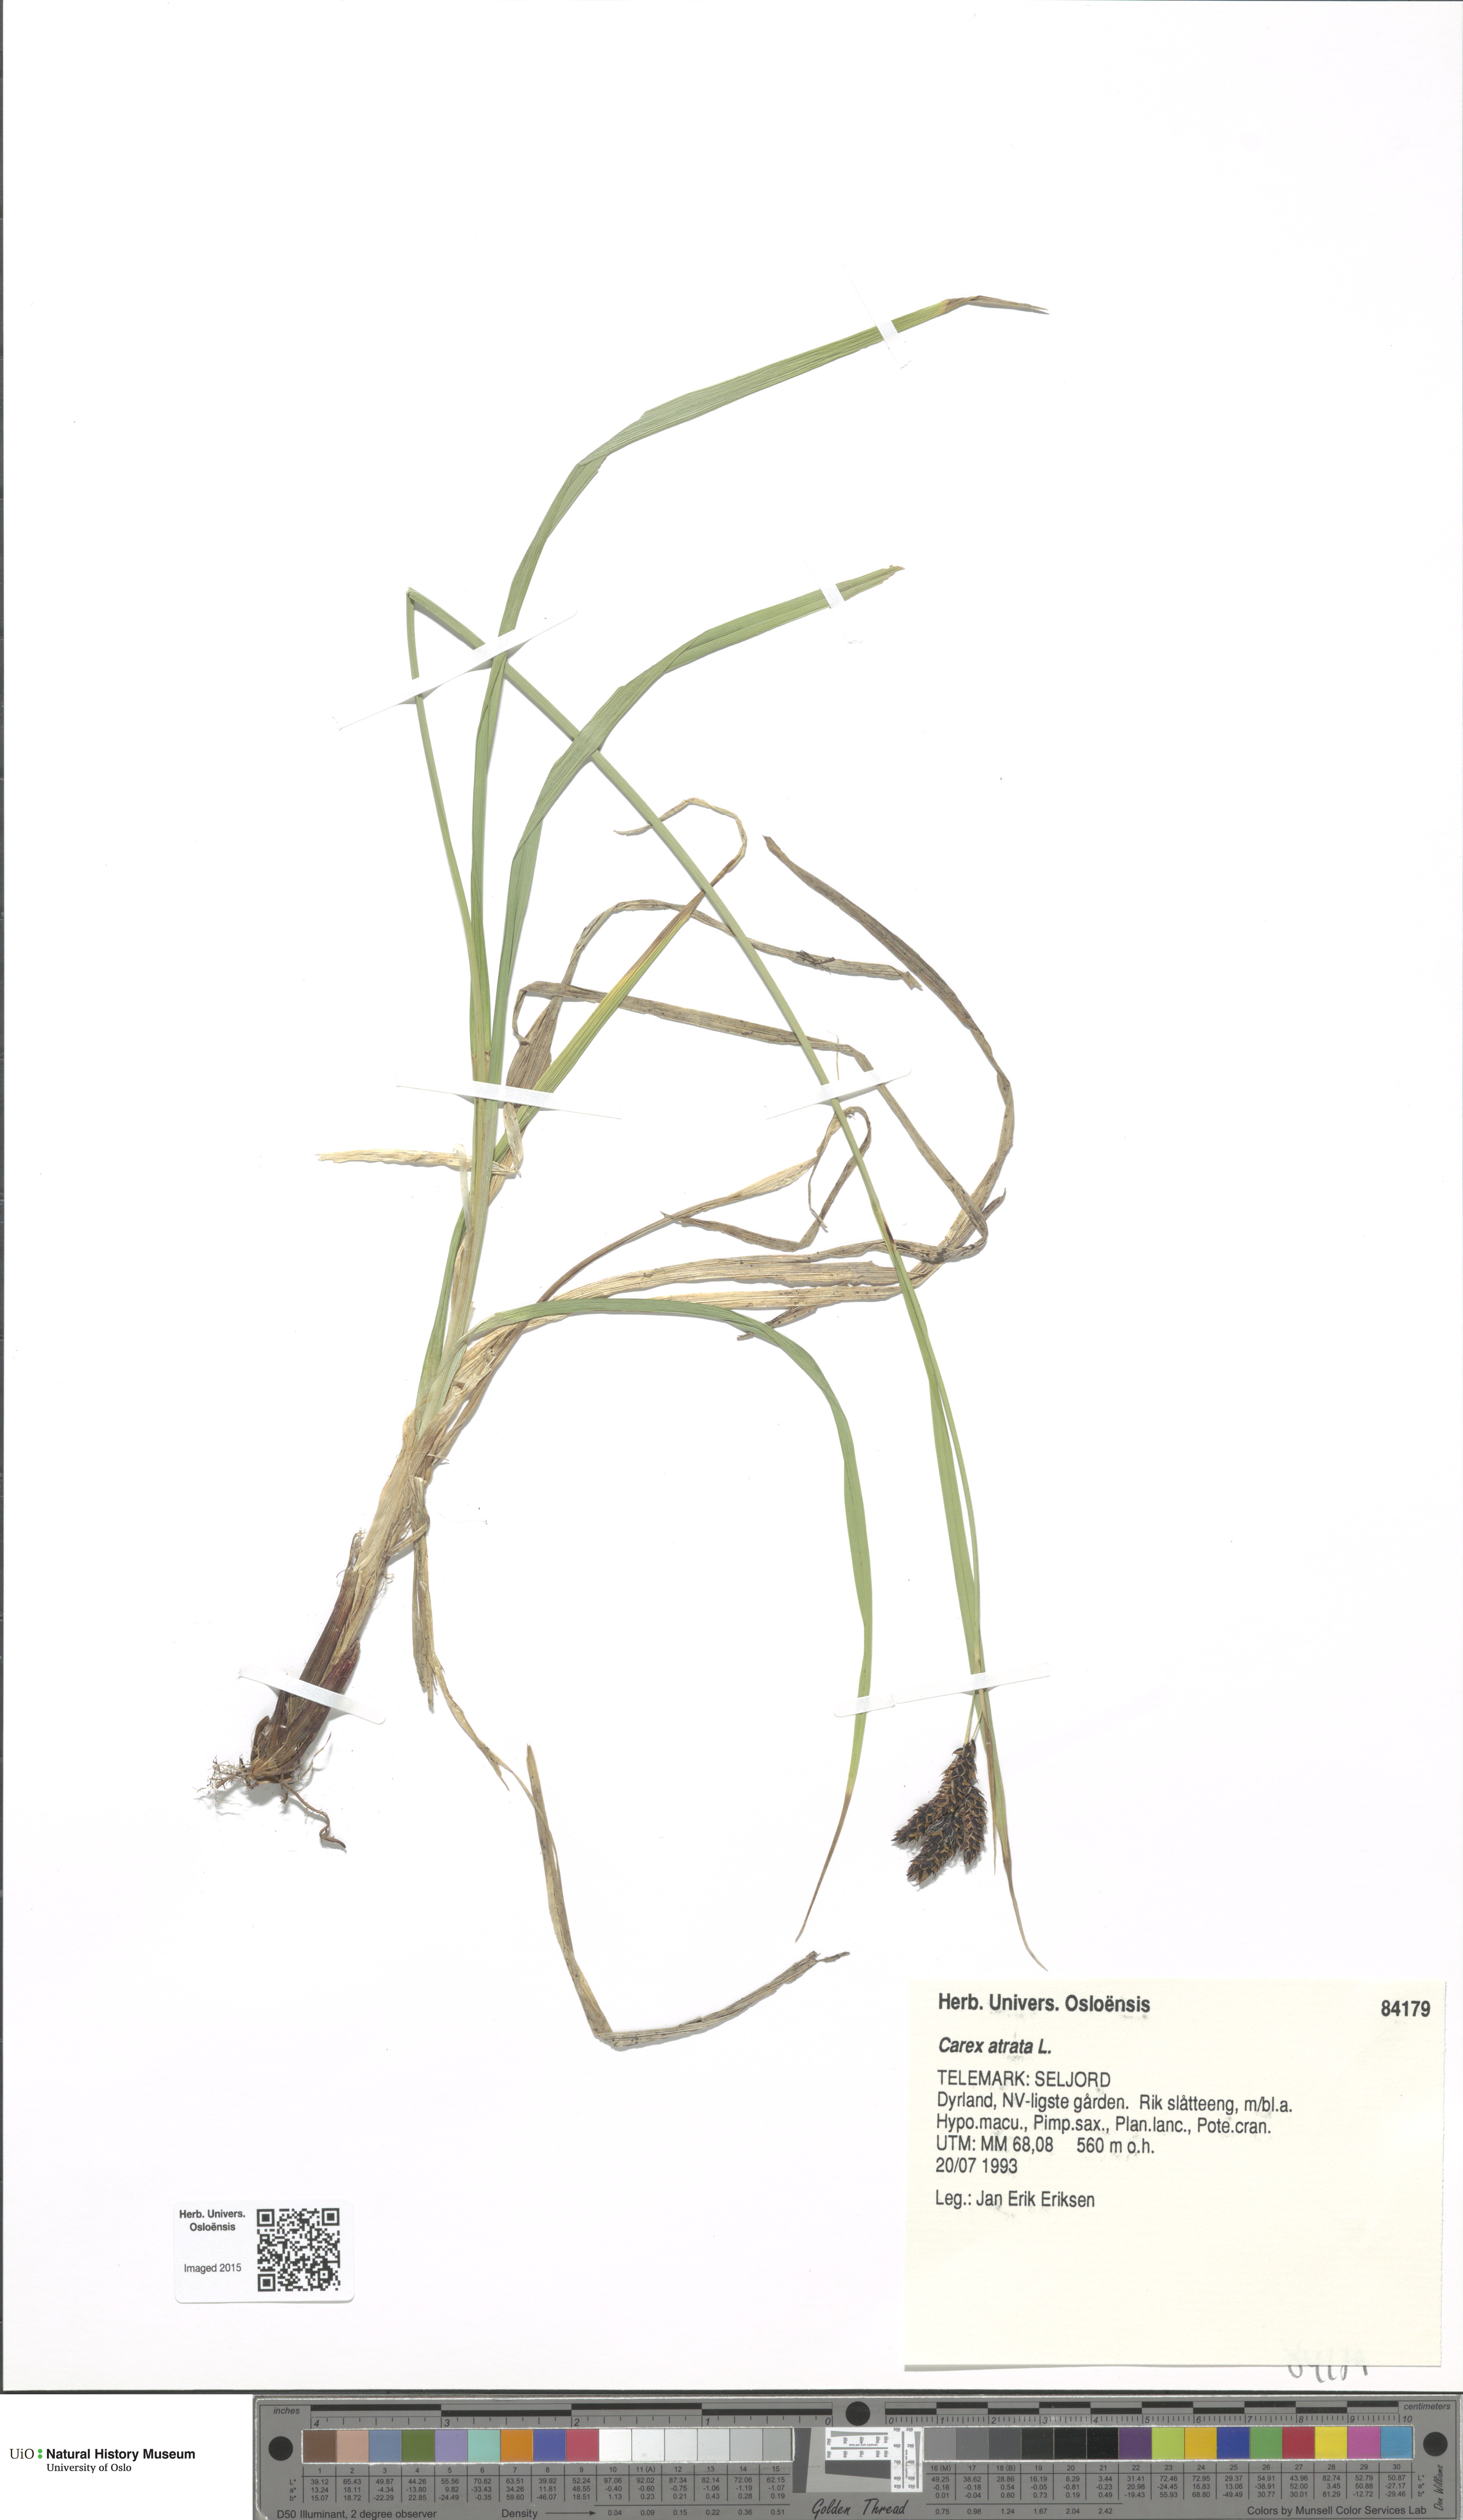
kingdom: Plantae
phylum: Tracheophyta
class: Liliopsida
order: Poales
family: Cyperaceae
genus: Carex
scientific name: Carex atrata
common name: Black alpine sedge
